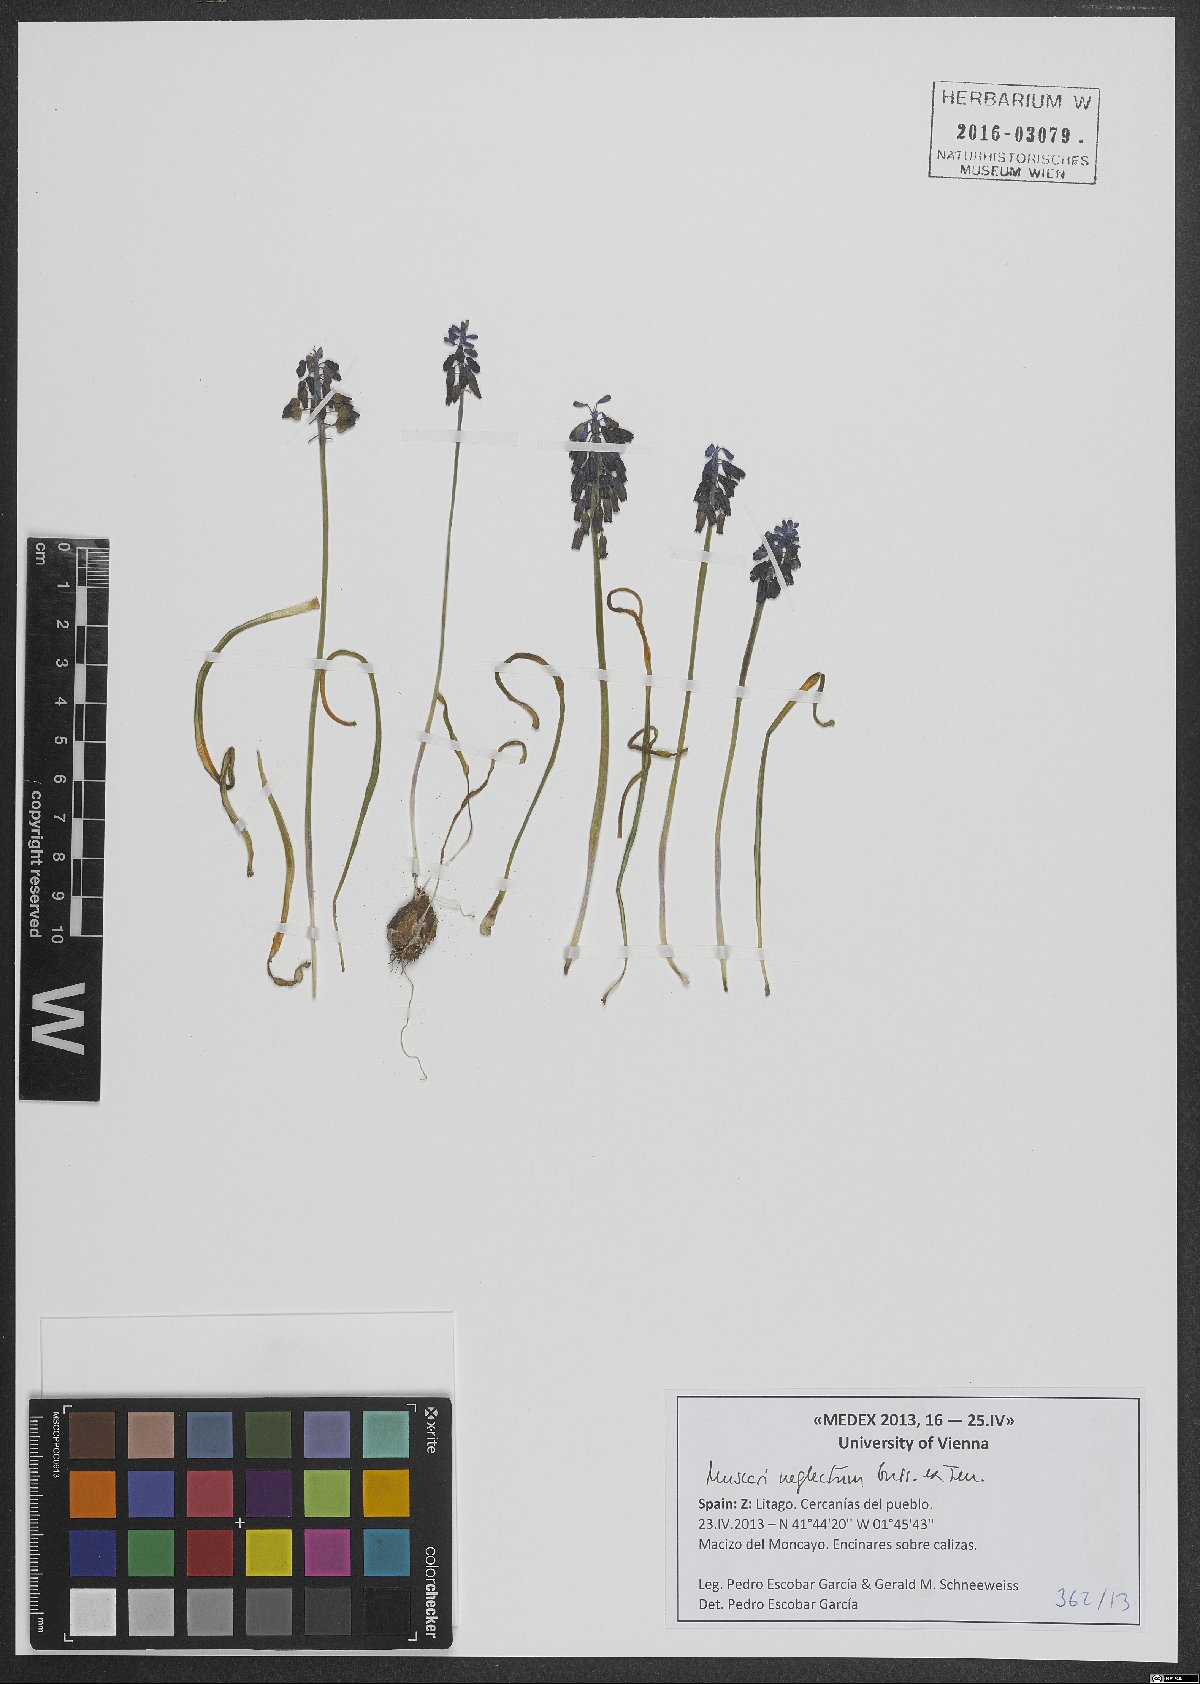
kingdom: Plantae
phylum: Tracheophyta
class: Liliopsida
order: Asparagales
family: Asparagaceae
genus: Muscari
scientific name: Muscari neglectum
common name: Grape-hyacinth
